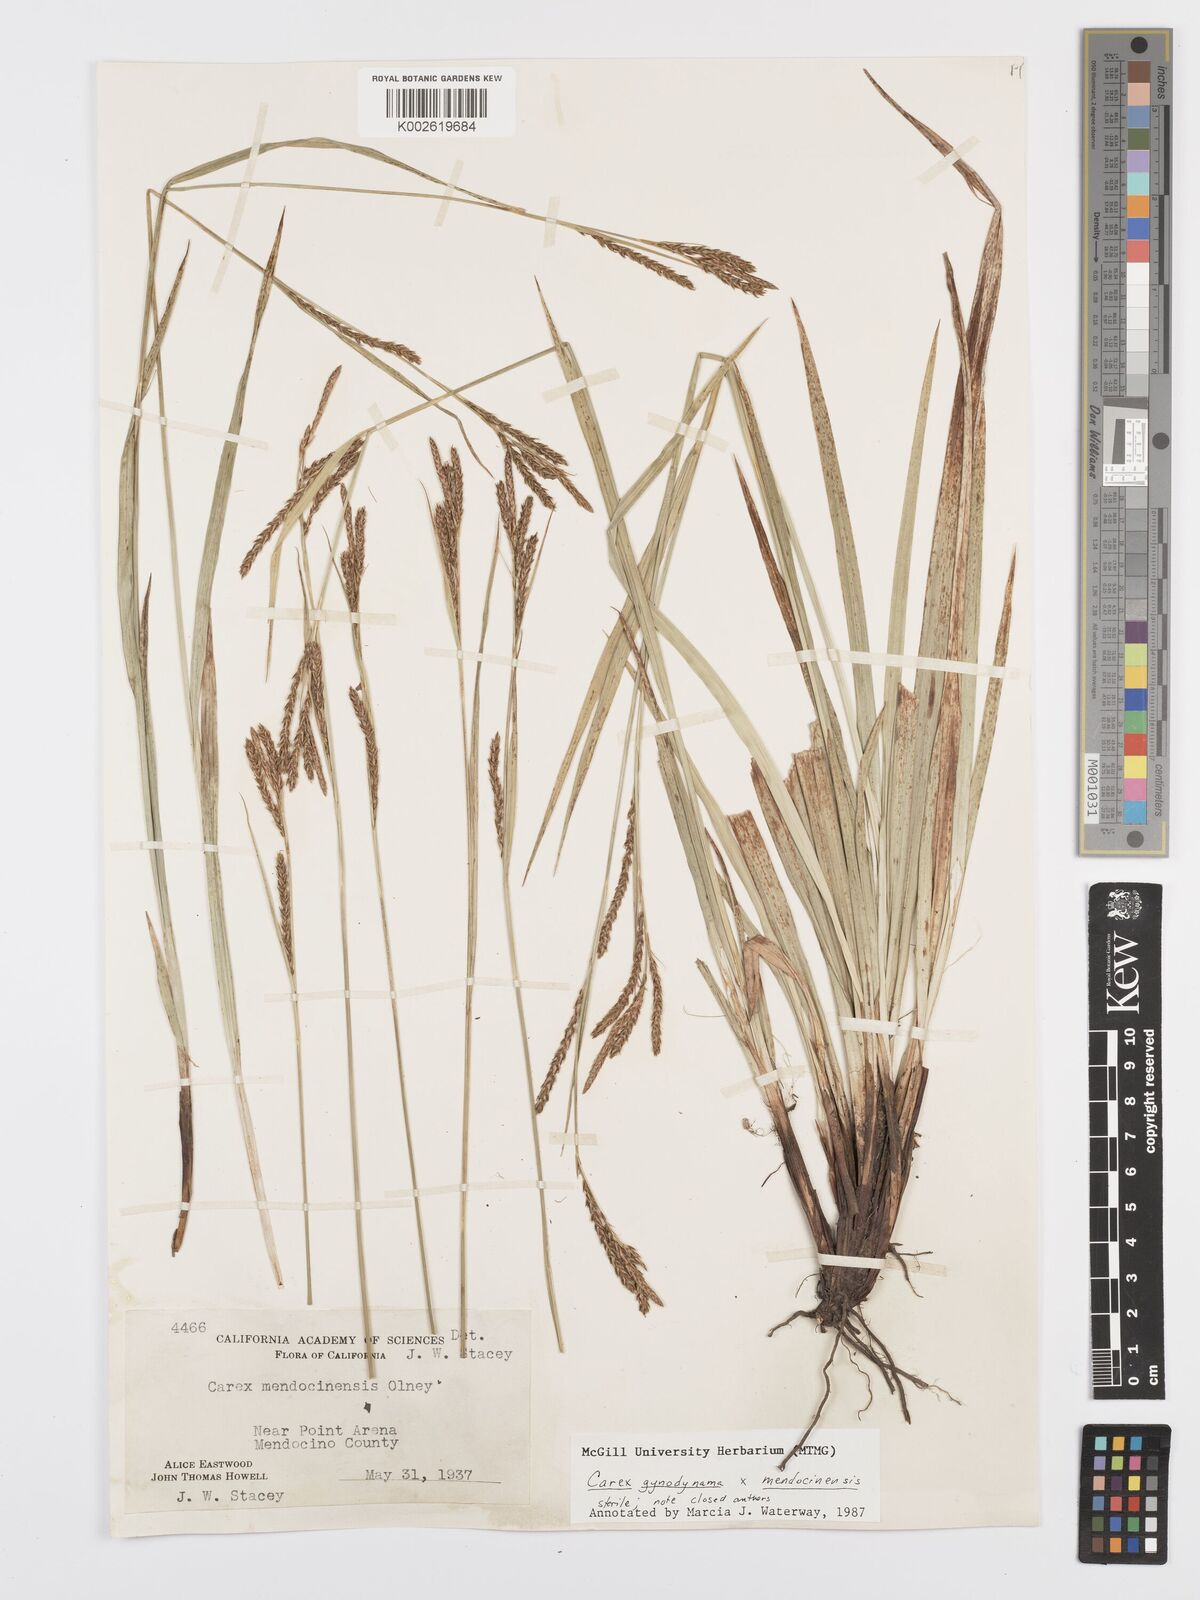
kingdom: Plantae
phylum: Tracheophyta
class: Liliopsida
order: Poales
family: Cyperaceae
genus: Carex
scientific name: Carex
